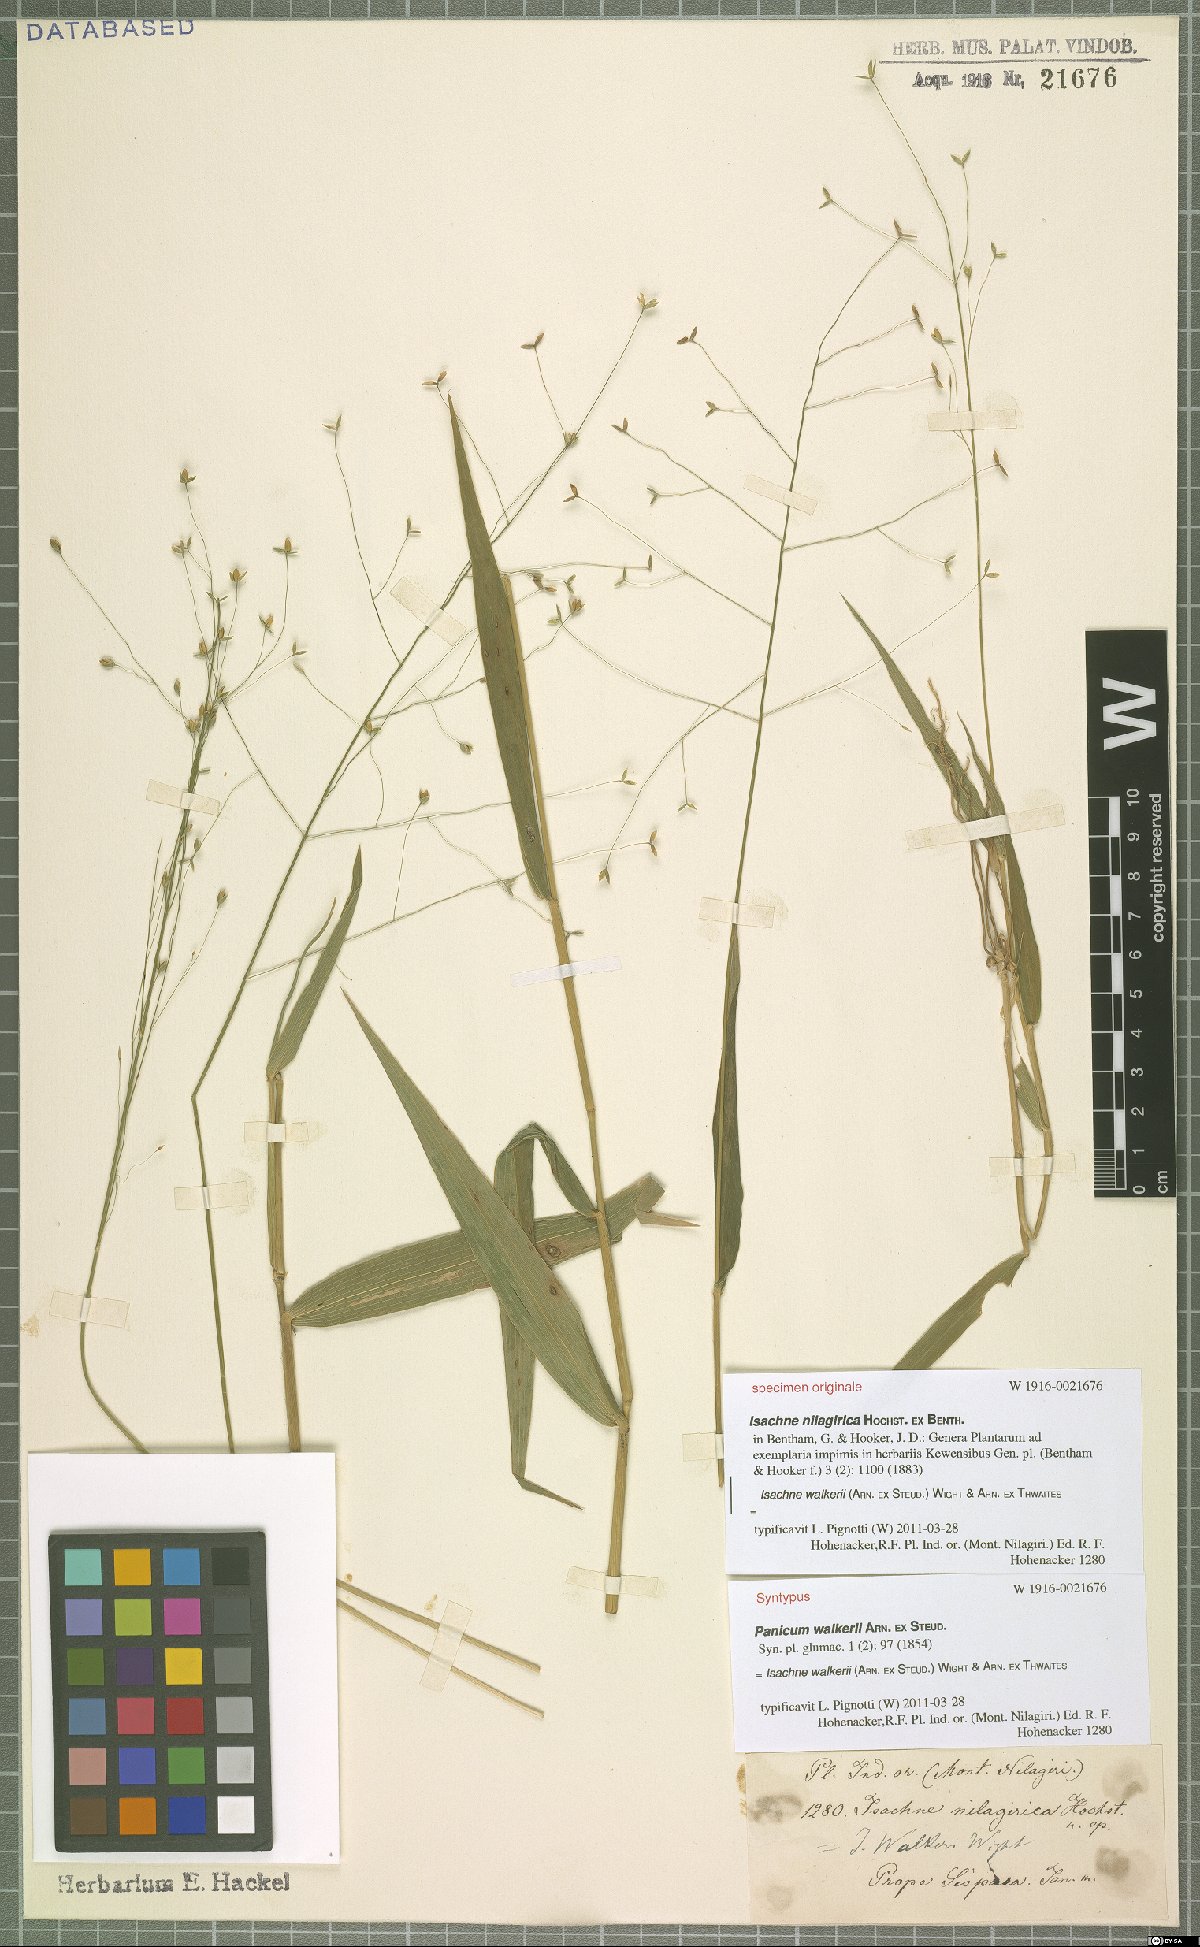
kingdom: Plantae
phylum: Tracheophyta
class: Liliopsida
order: Poales
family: Poaceae
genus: Isachne
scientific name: Isachne walkeri
